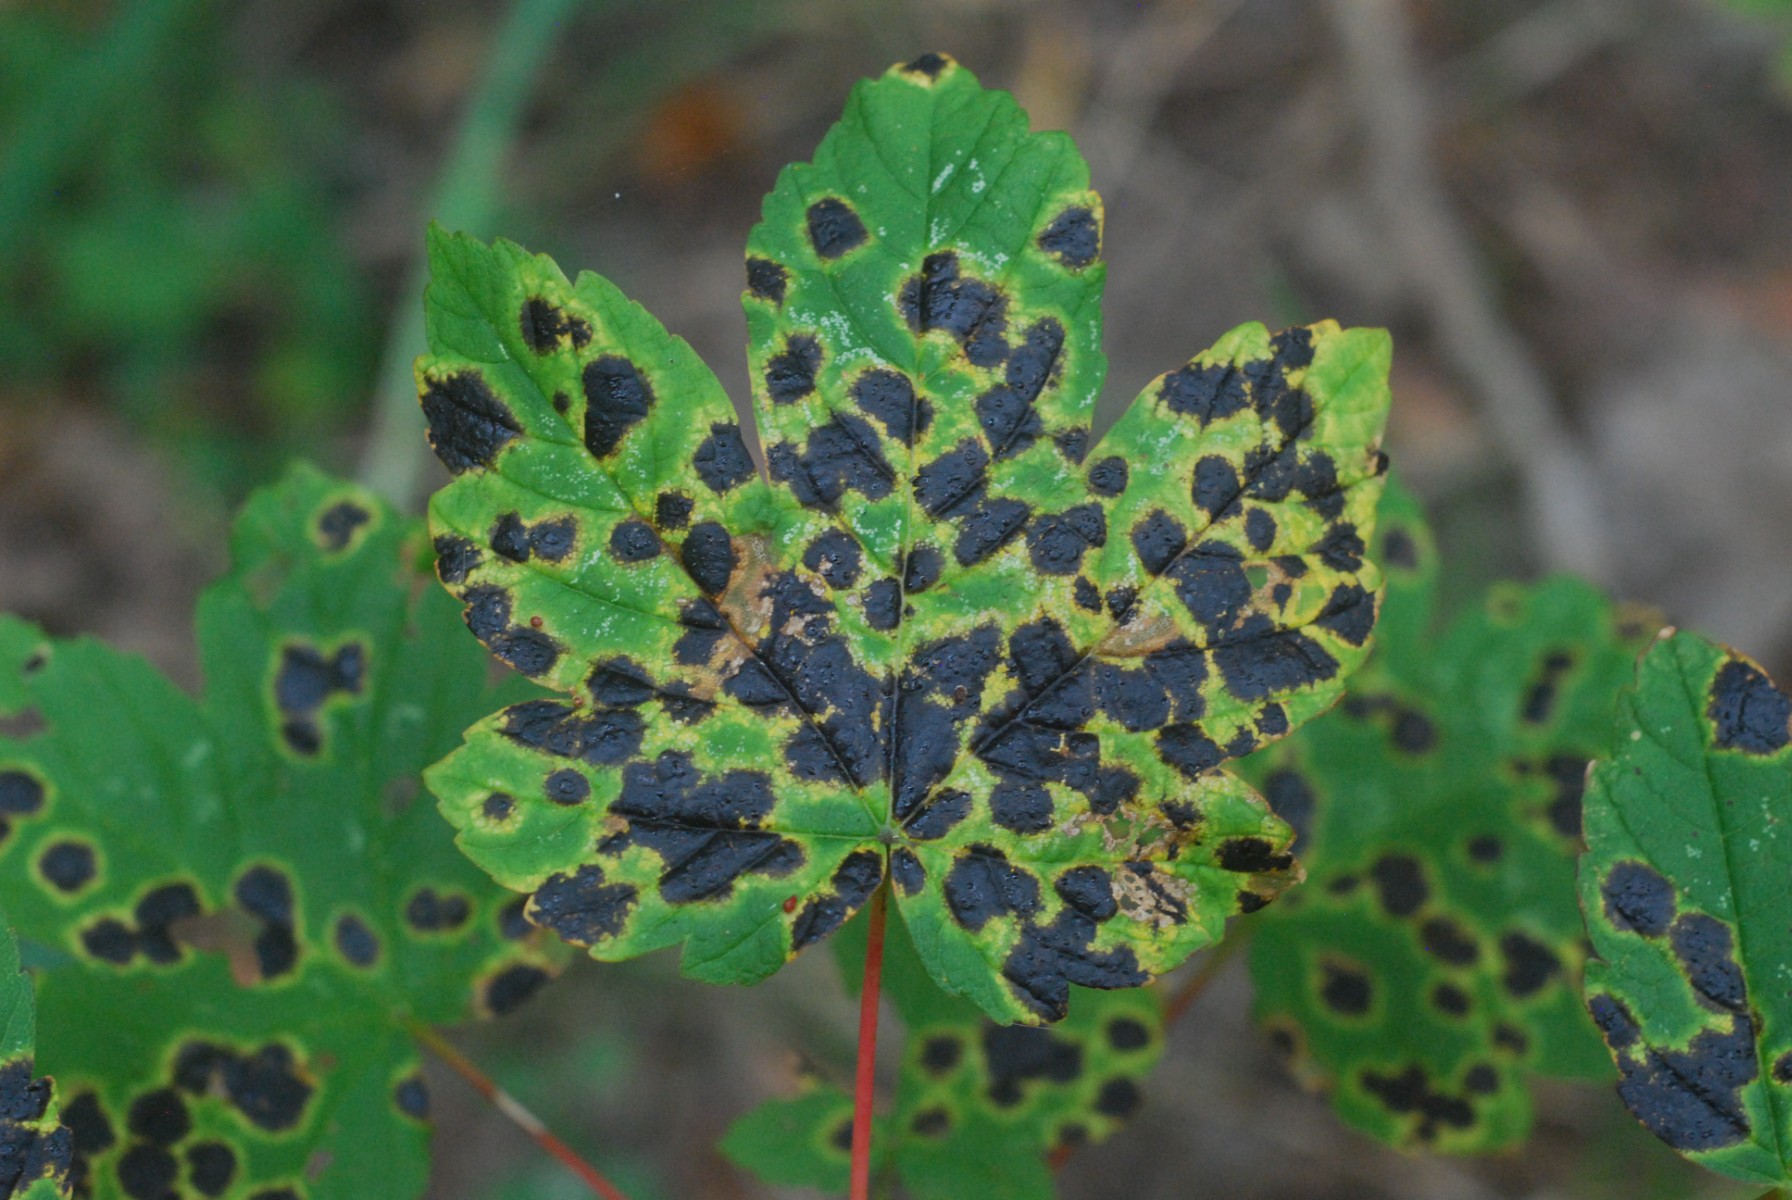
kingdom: Fungi
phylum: Ascomycota
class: Leotiomycetes
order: Rhytismatales
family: Rhytismataceae
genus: Rhytisma
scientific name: Rhytisma acerinum
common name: ahorn-rynkeplet
